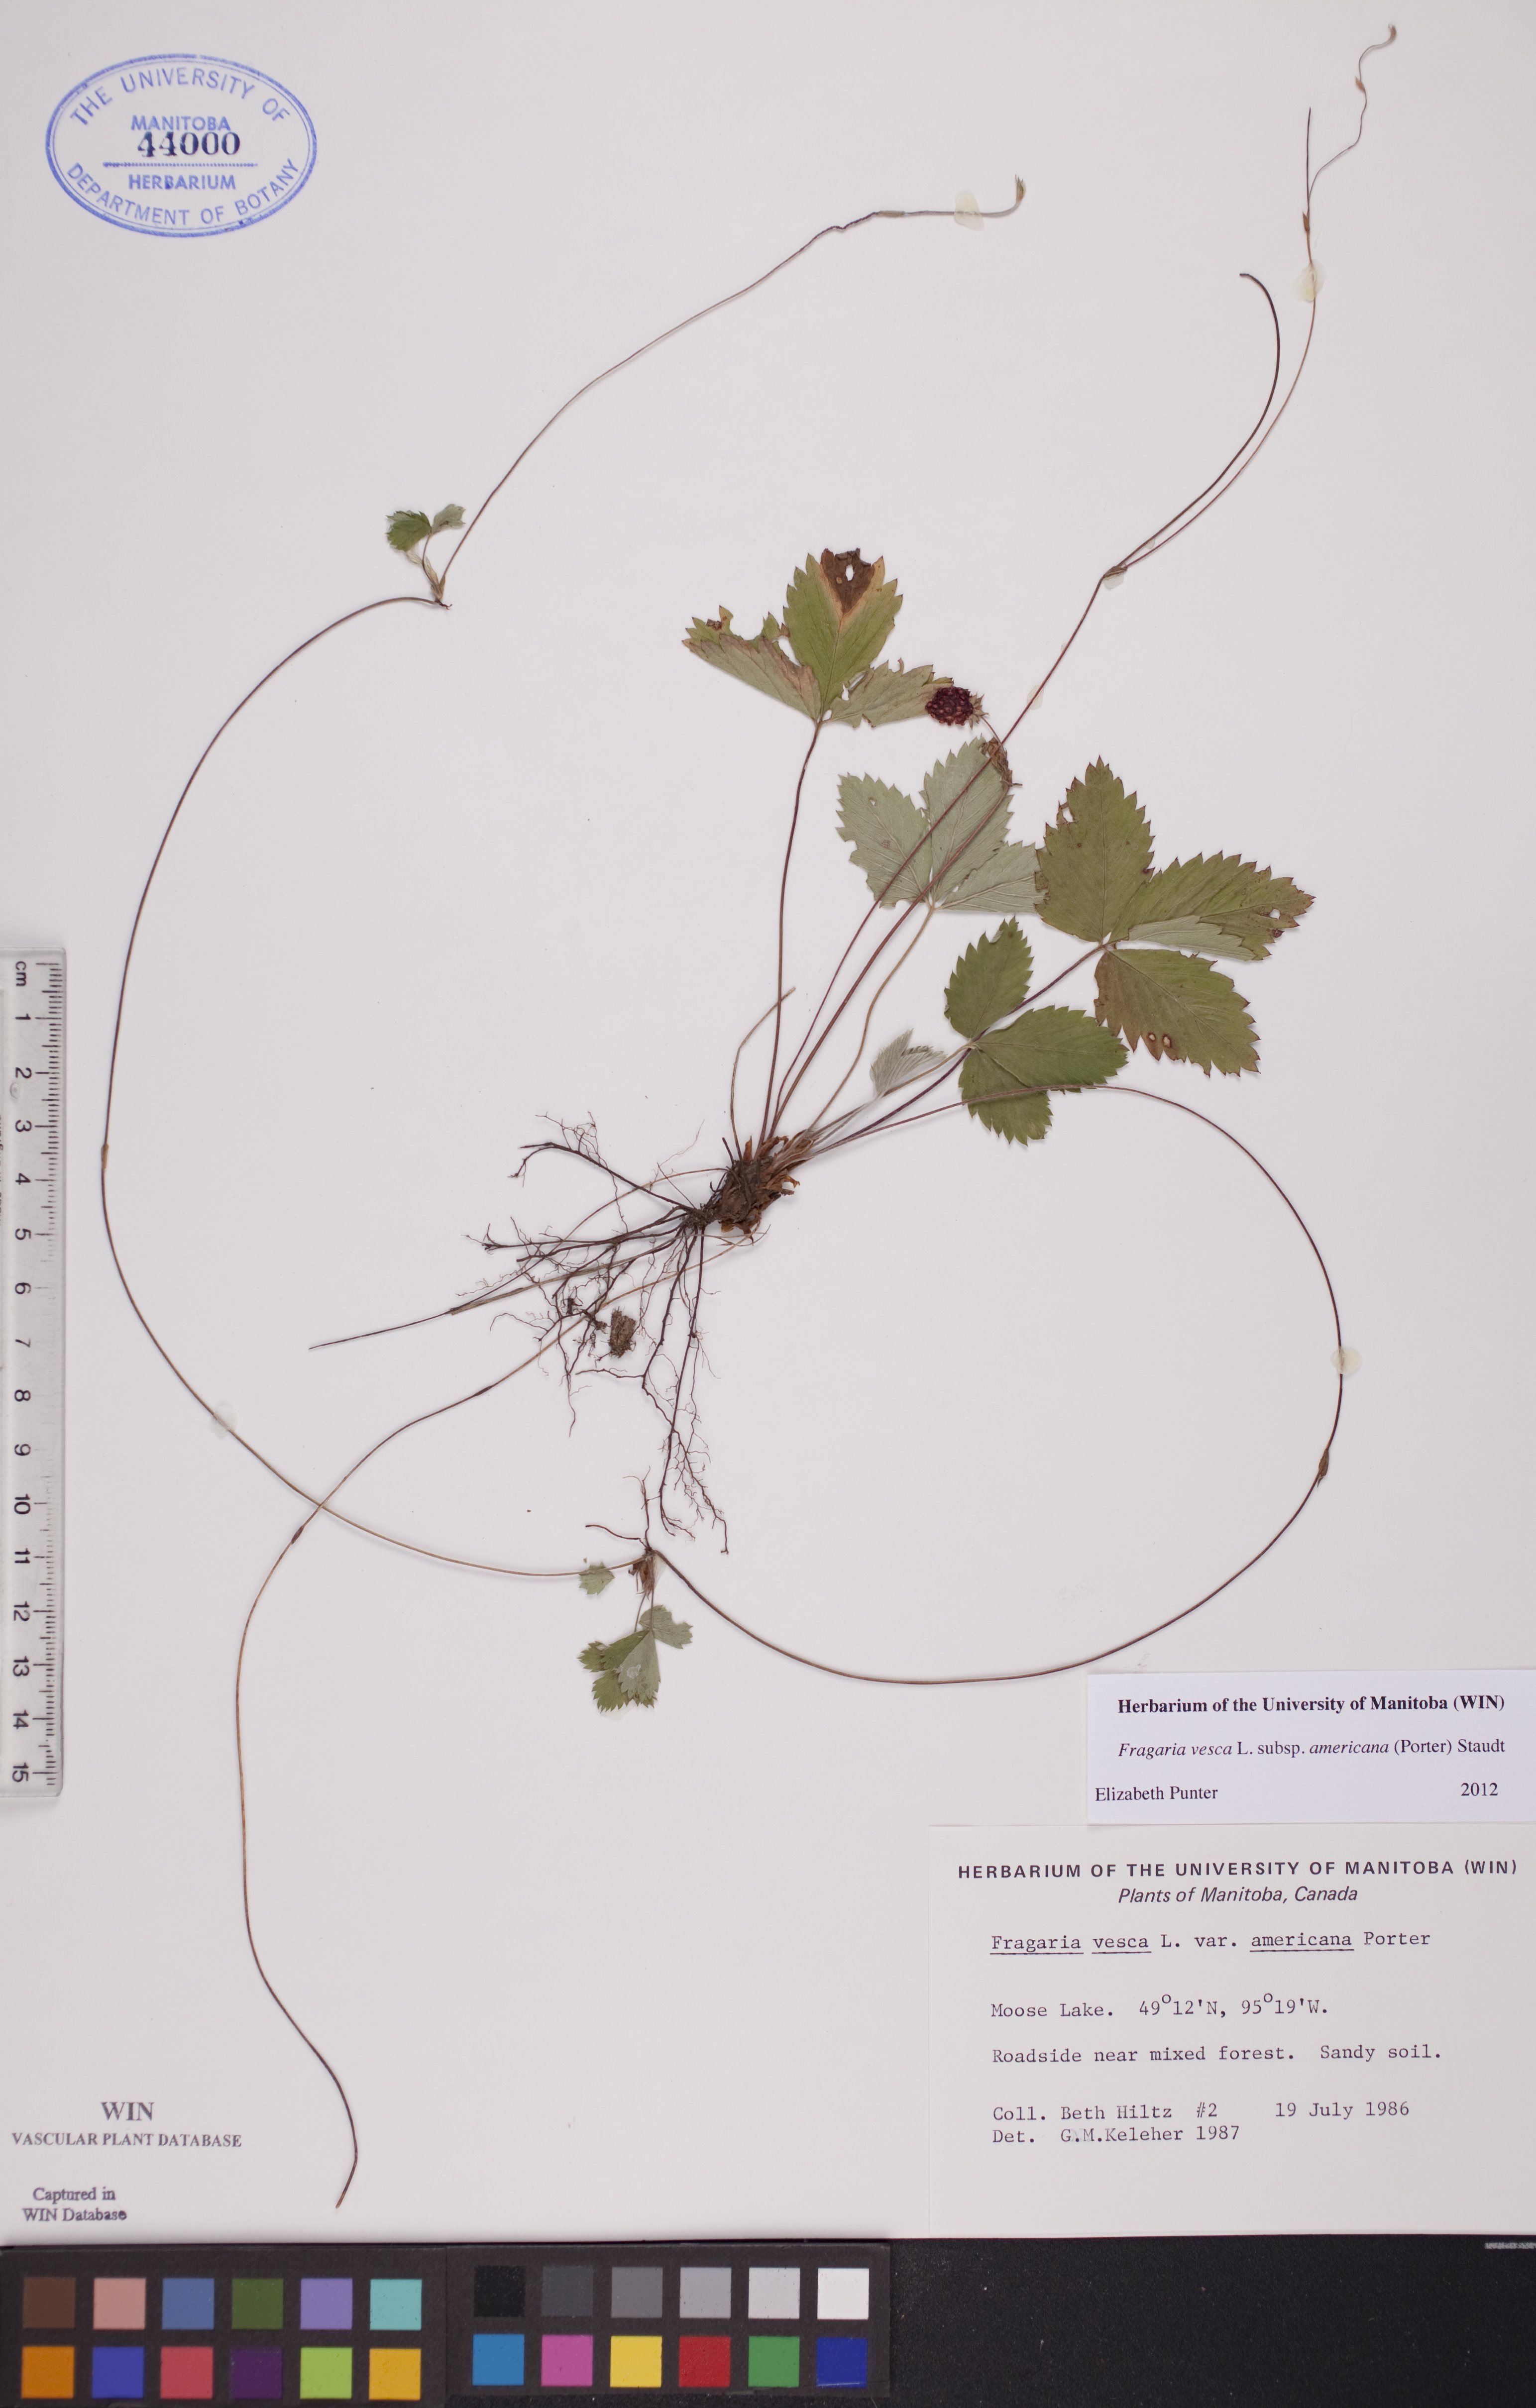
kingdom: Plantae
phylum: Tracheophyta
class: Magnoliopsida
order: Rosales
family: Rosaceae
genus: Fragaria
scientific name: Fragaria vesca
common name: Wild strawberry
